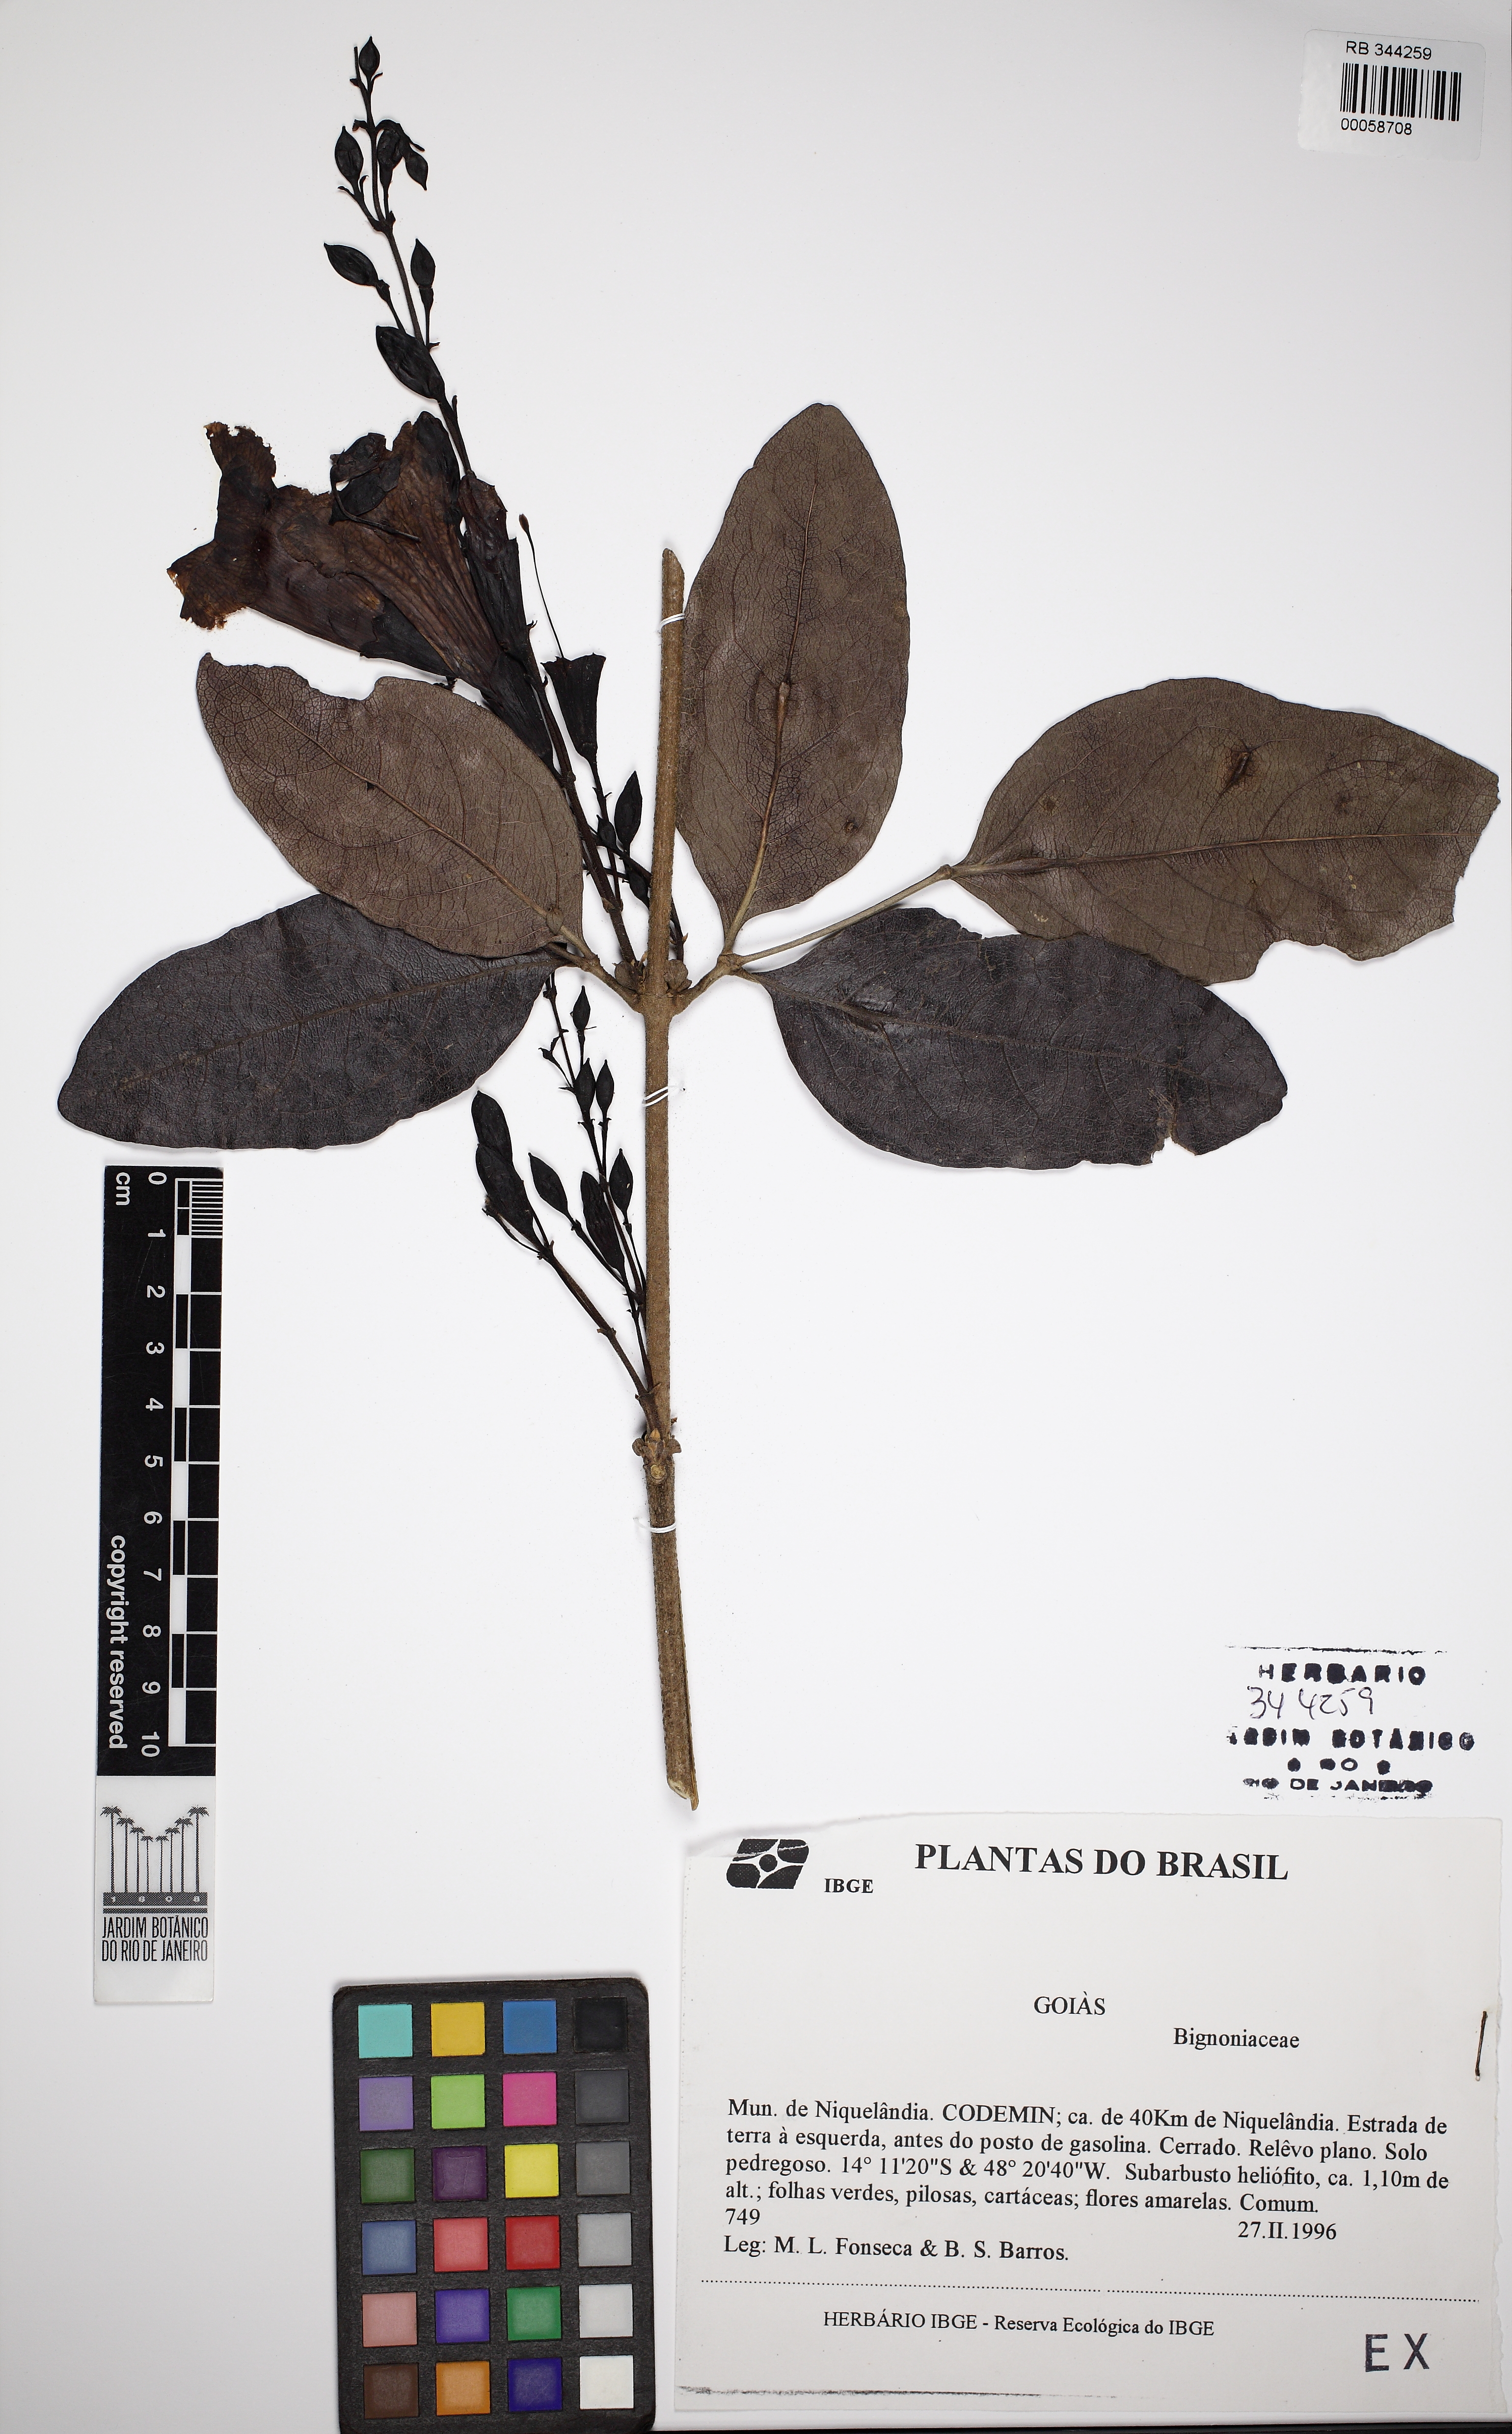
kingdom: Plantae
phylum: Tracheophyta
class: Magnoliopsida
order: Lamiales
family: Bignoniaceae
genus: Adenocalymma
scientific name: Adenocalymma
